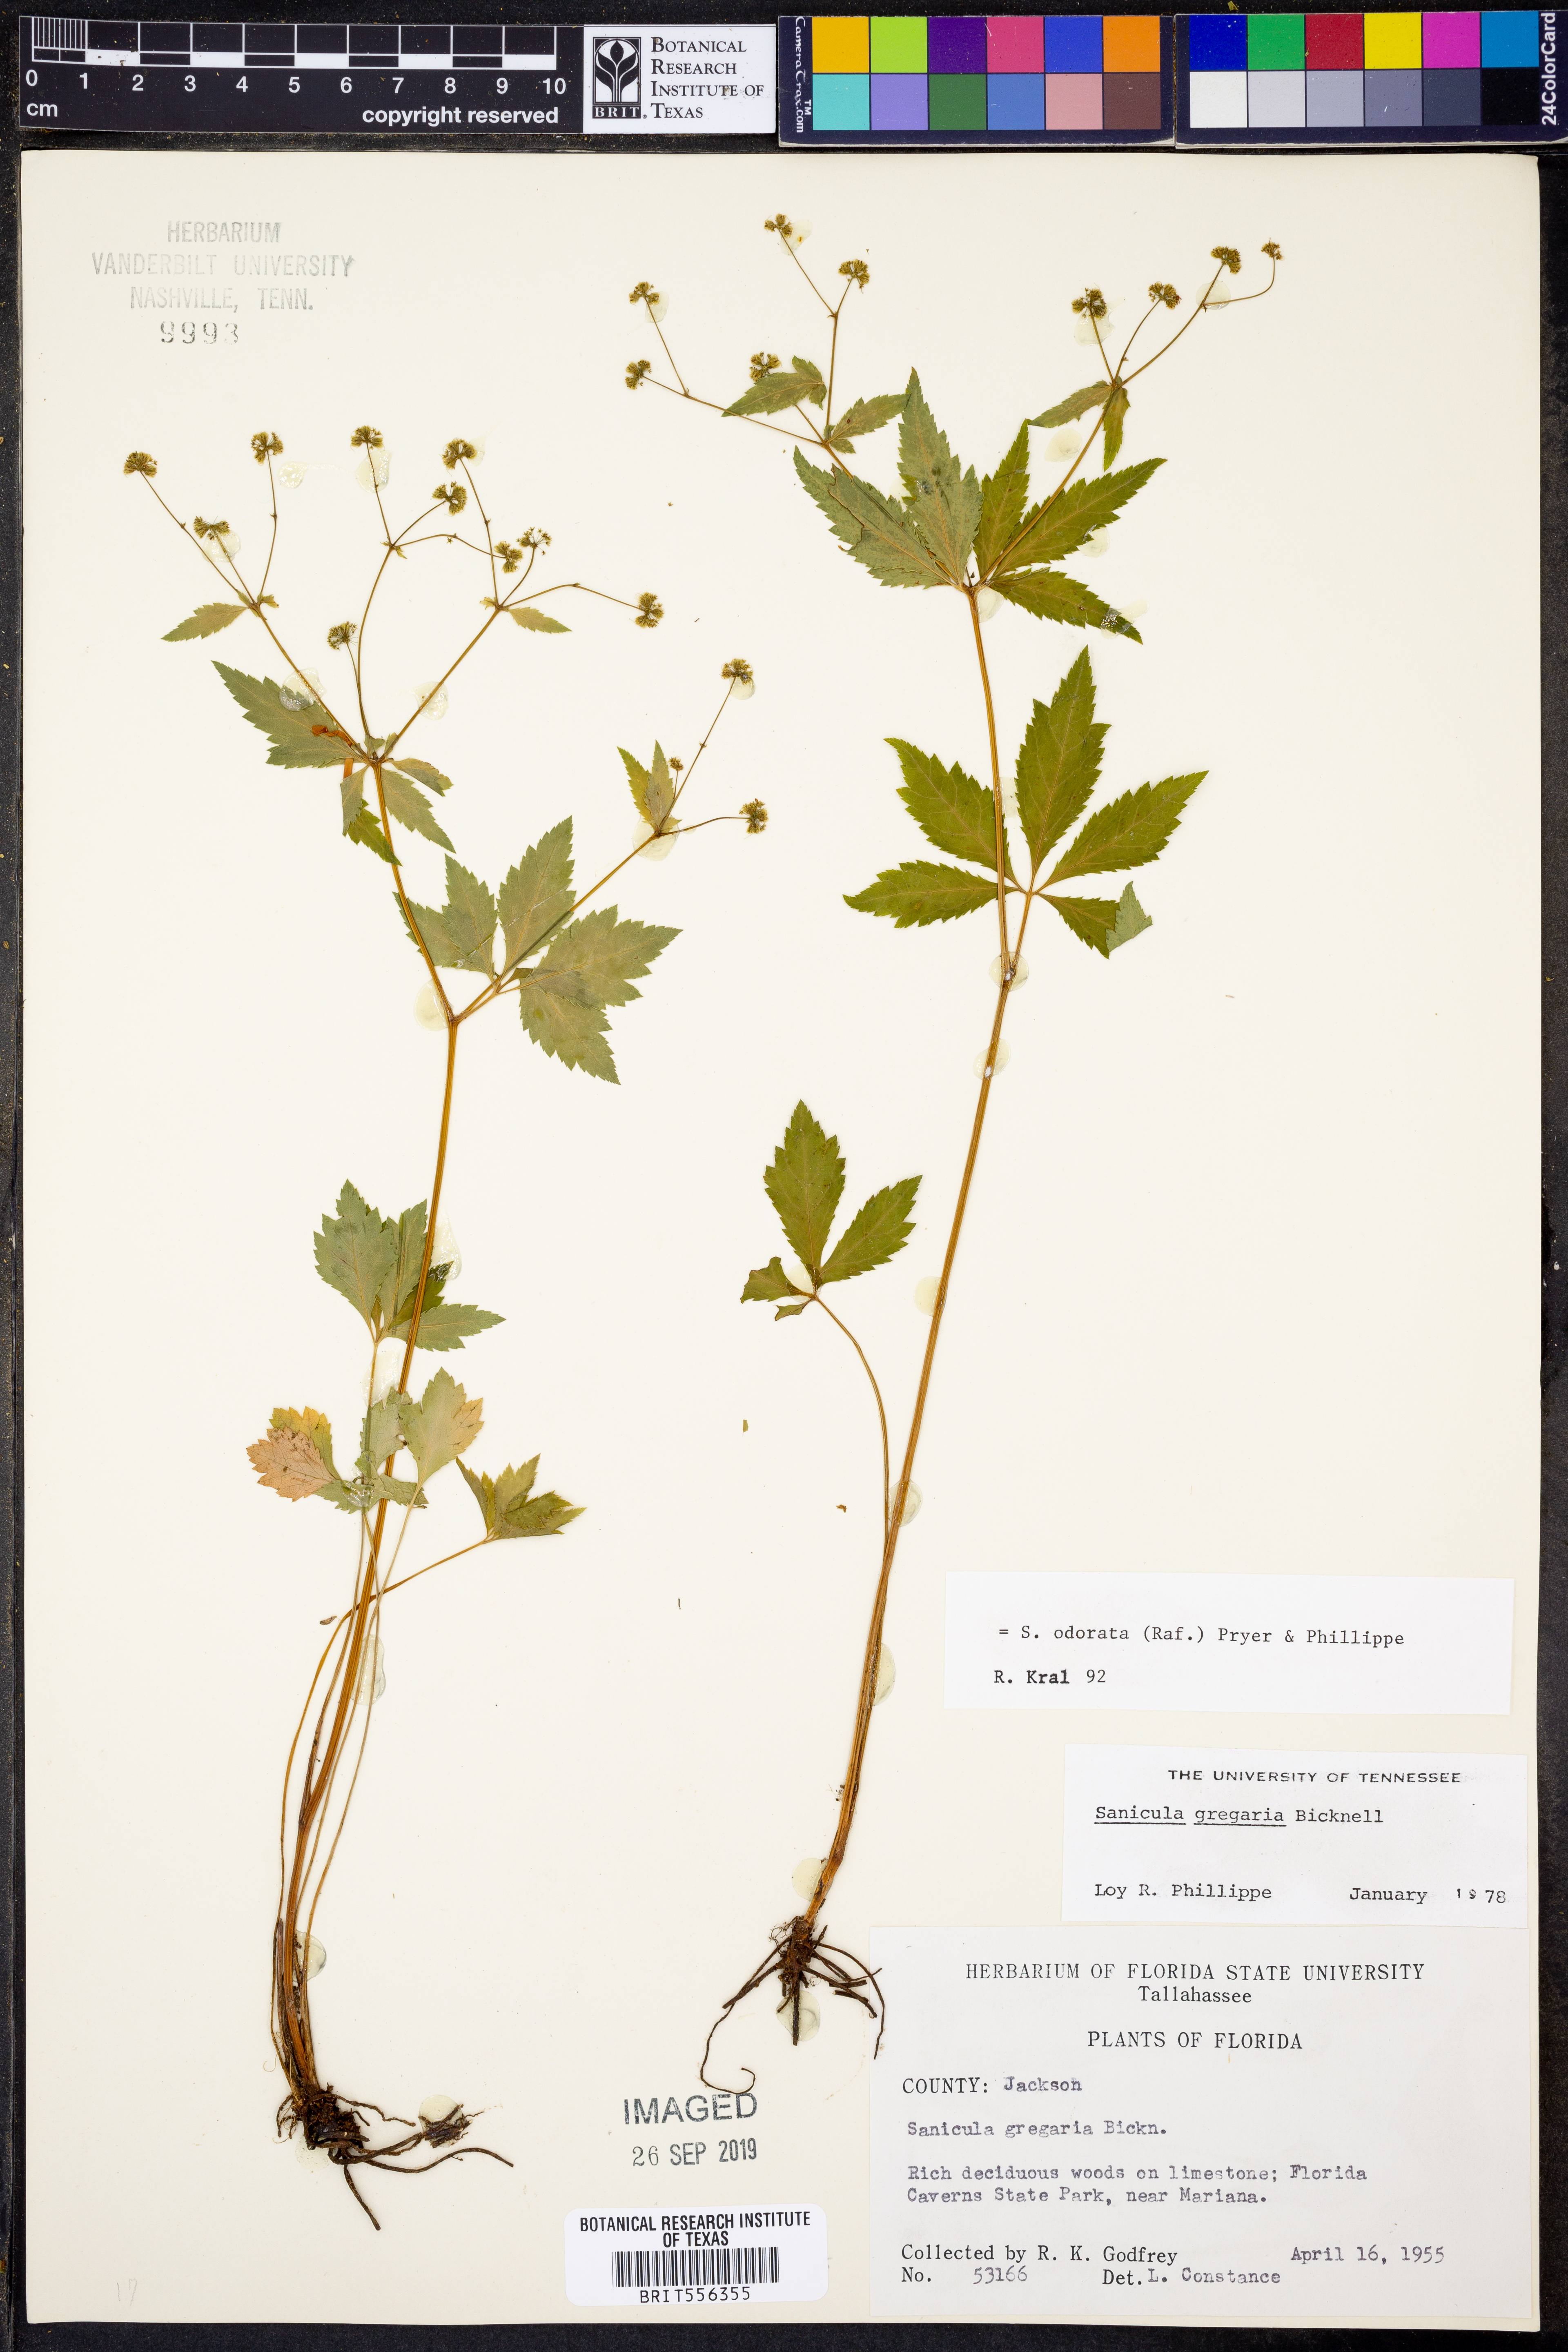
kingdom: Plantae
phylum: Tracheophyta
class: Magnoliopsida
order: Apiales
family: Apiaceae
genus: Sanicula
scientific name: Sanicula odorata
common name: Cluster sanicle
